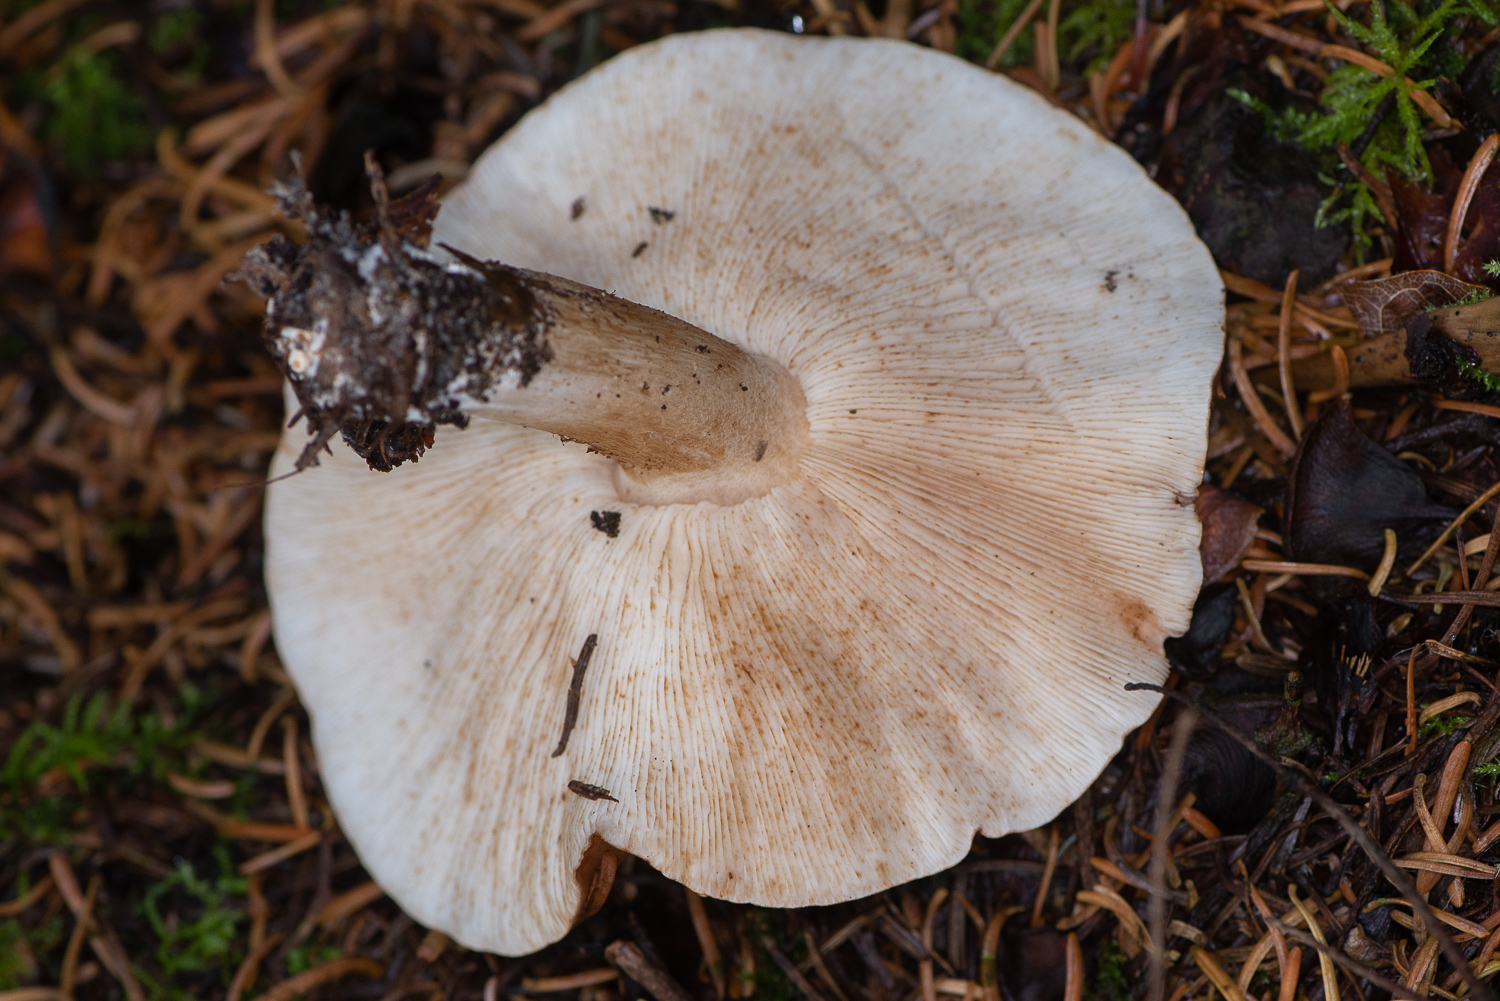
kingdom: Fungi
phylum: Basidiomycota
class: Agaricomycetes
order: Agaricales
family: Tricholomataceae
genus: Tricholoma
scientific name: Tricholoma
